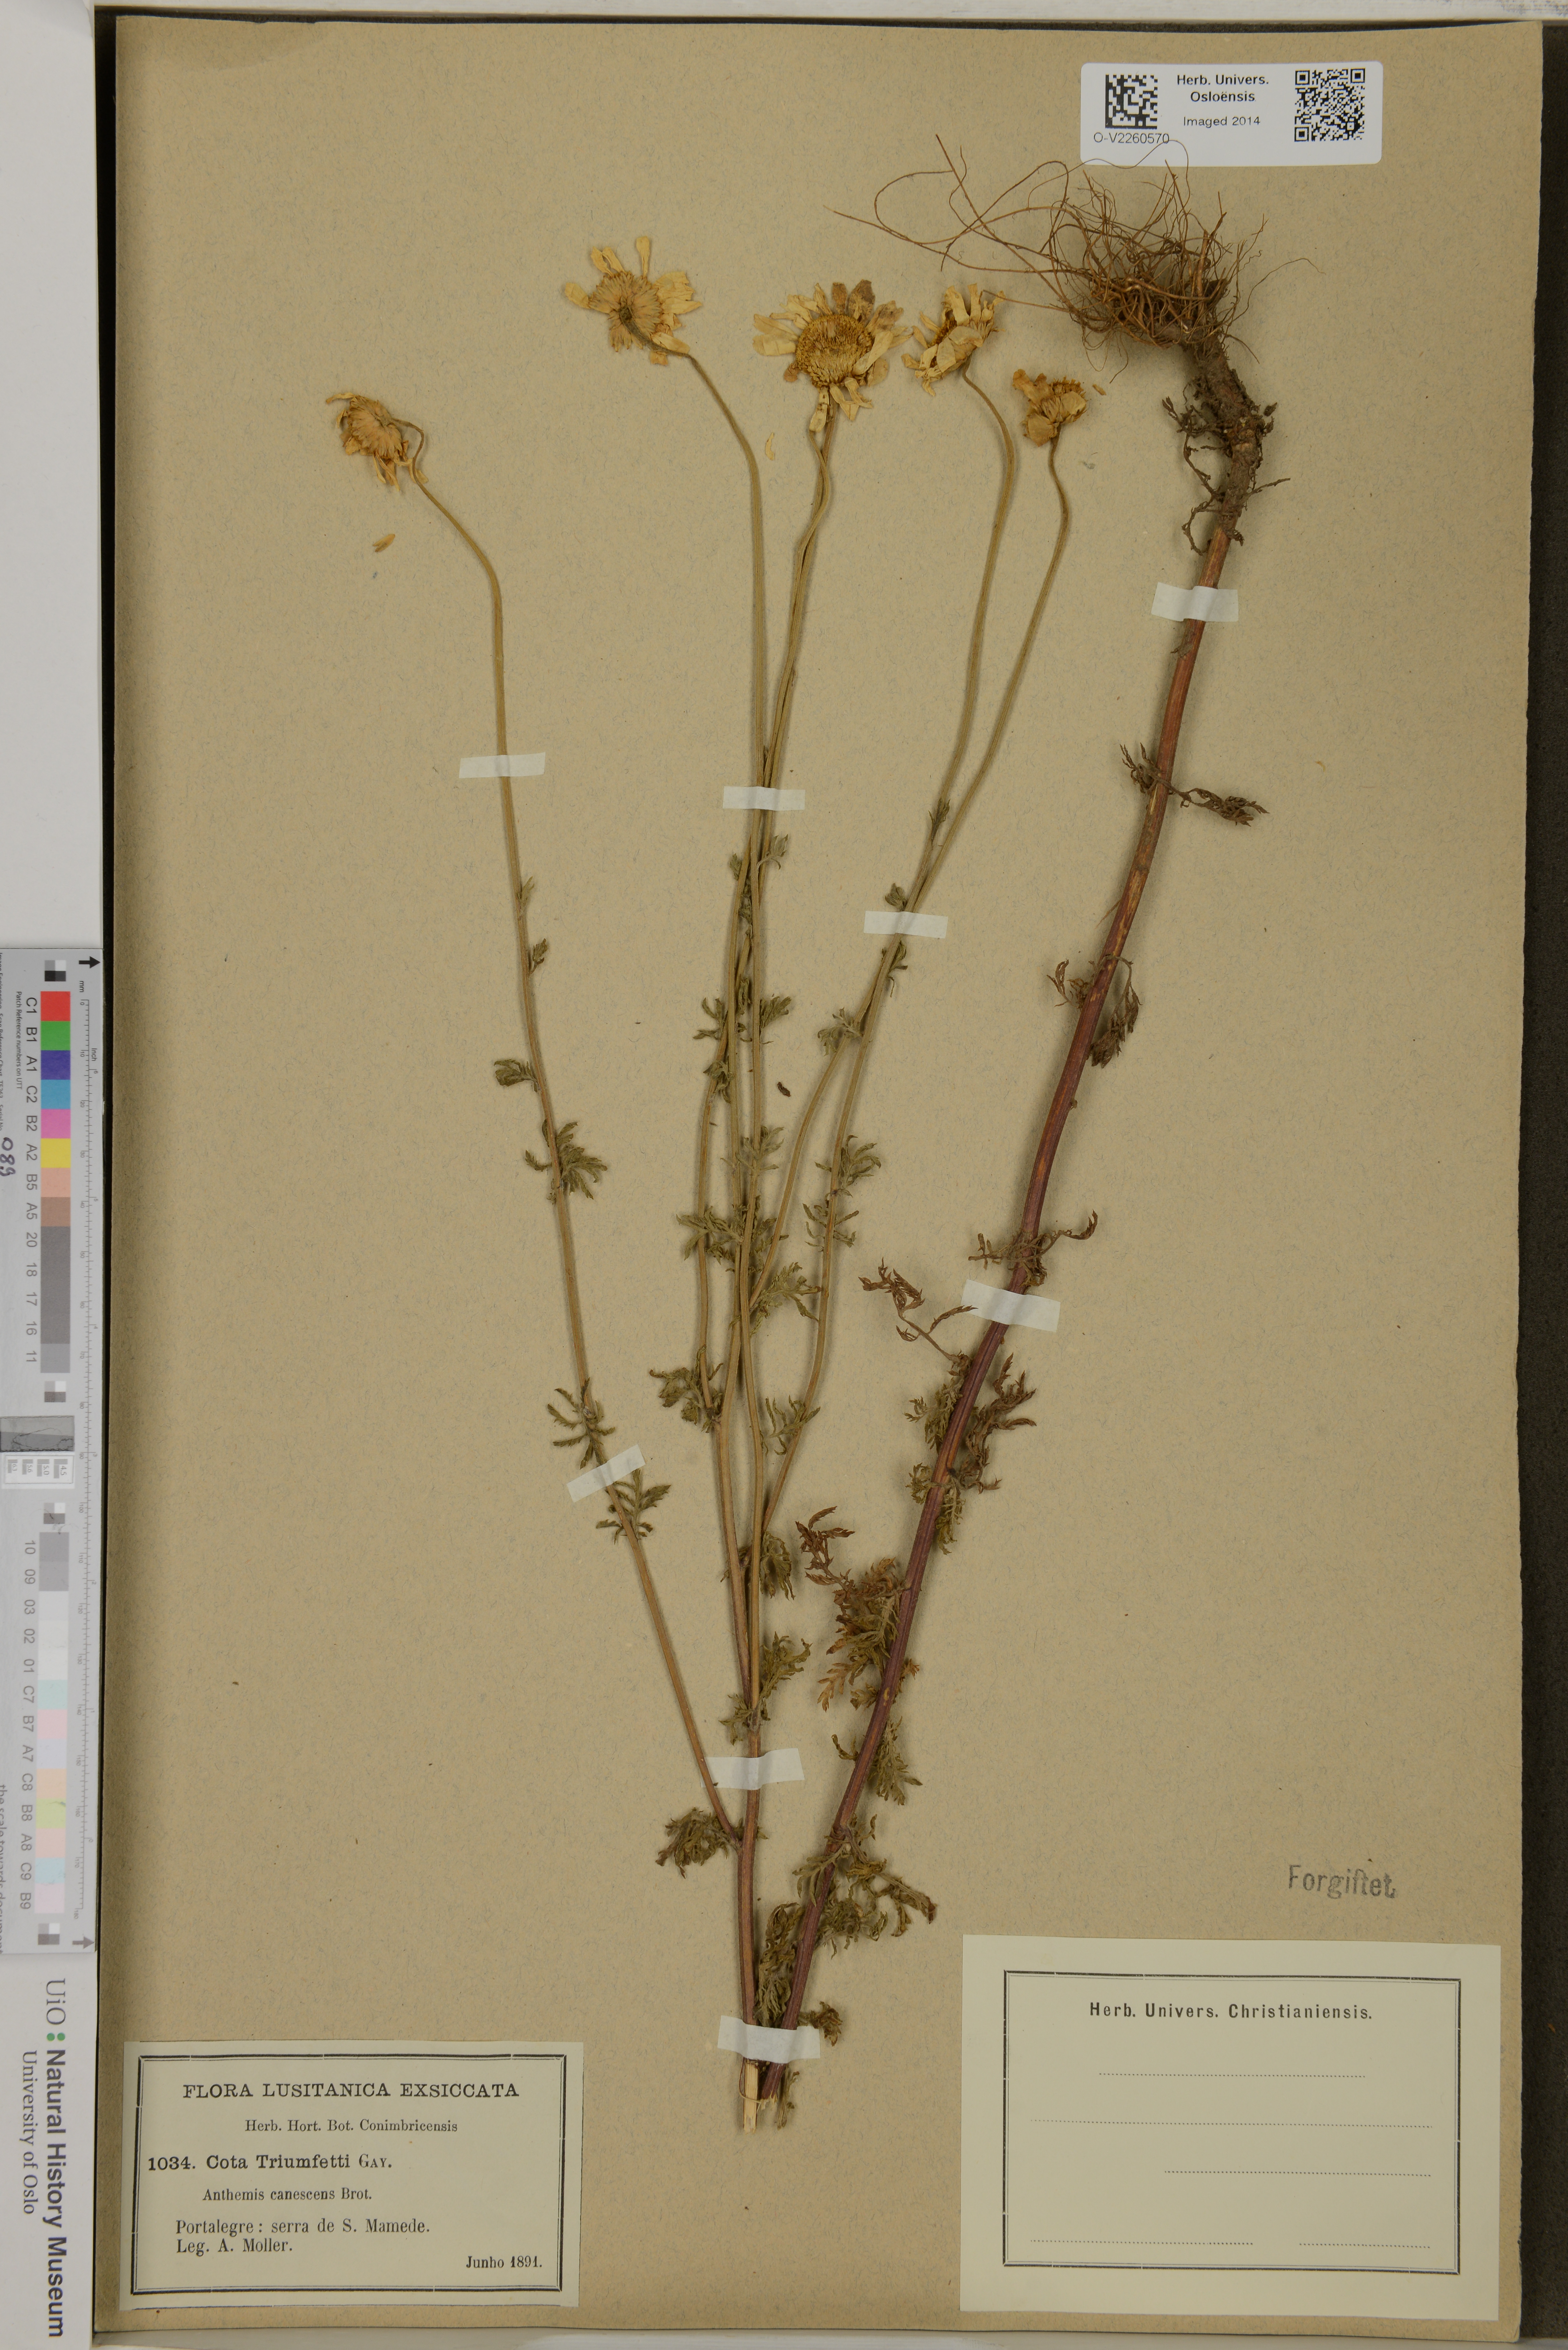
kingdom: Plantae
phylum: Tracheophyta
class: Magnoliopsida
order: Asterales
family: Asteraceae
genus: Cota
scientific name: Cota triumfetti
